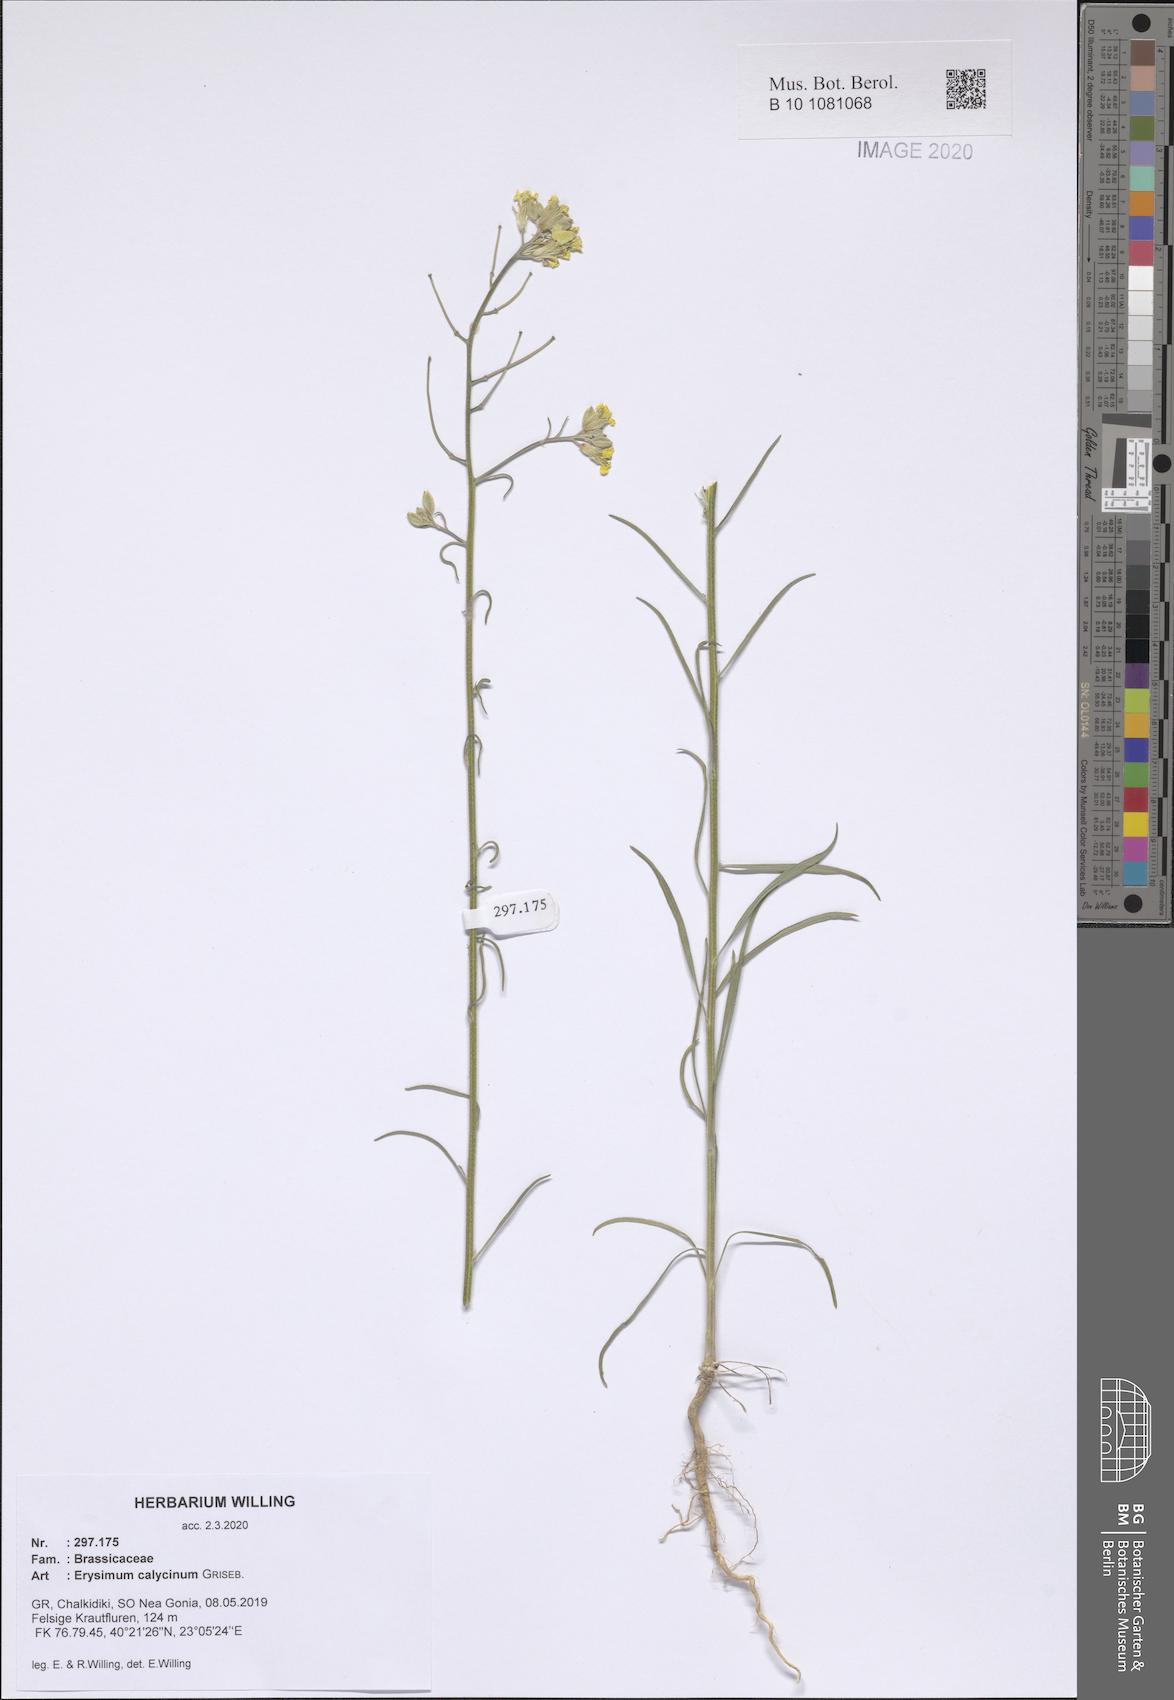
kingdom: Plantae
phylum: Tracheophyta
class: Magnoliopsida
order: Brassicales
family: Brassicaceae
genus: Erysimum
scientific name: Erysimum calycinum
